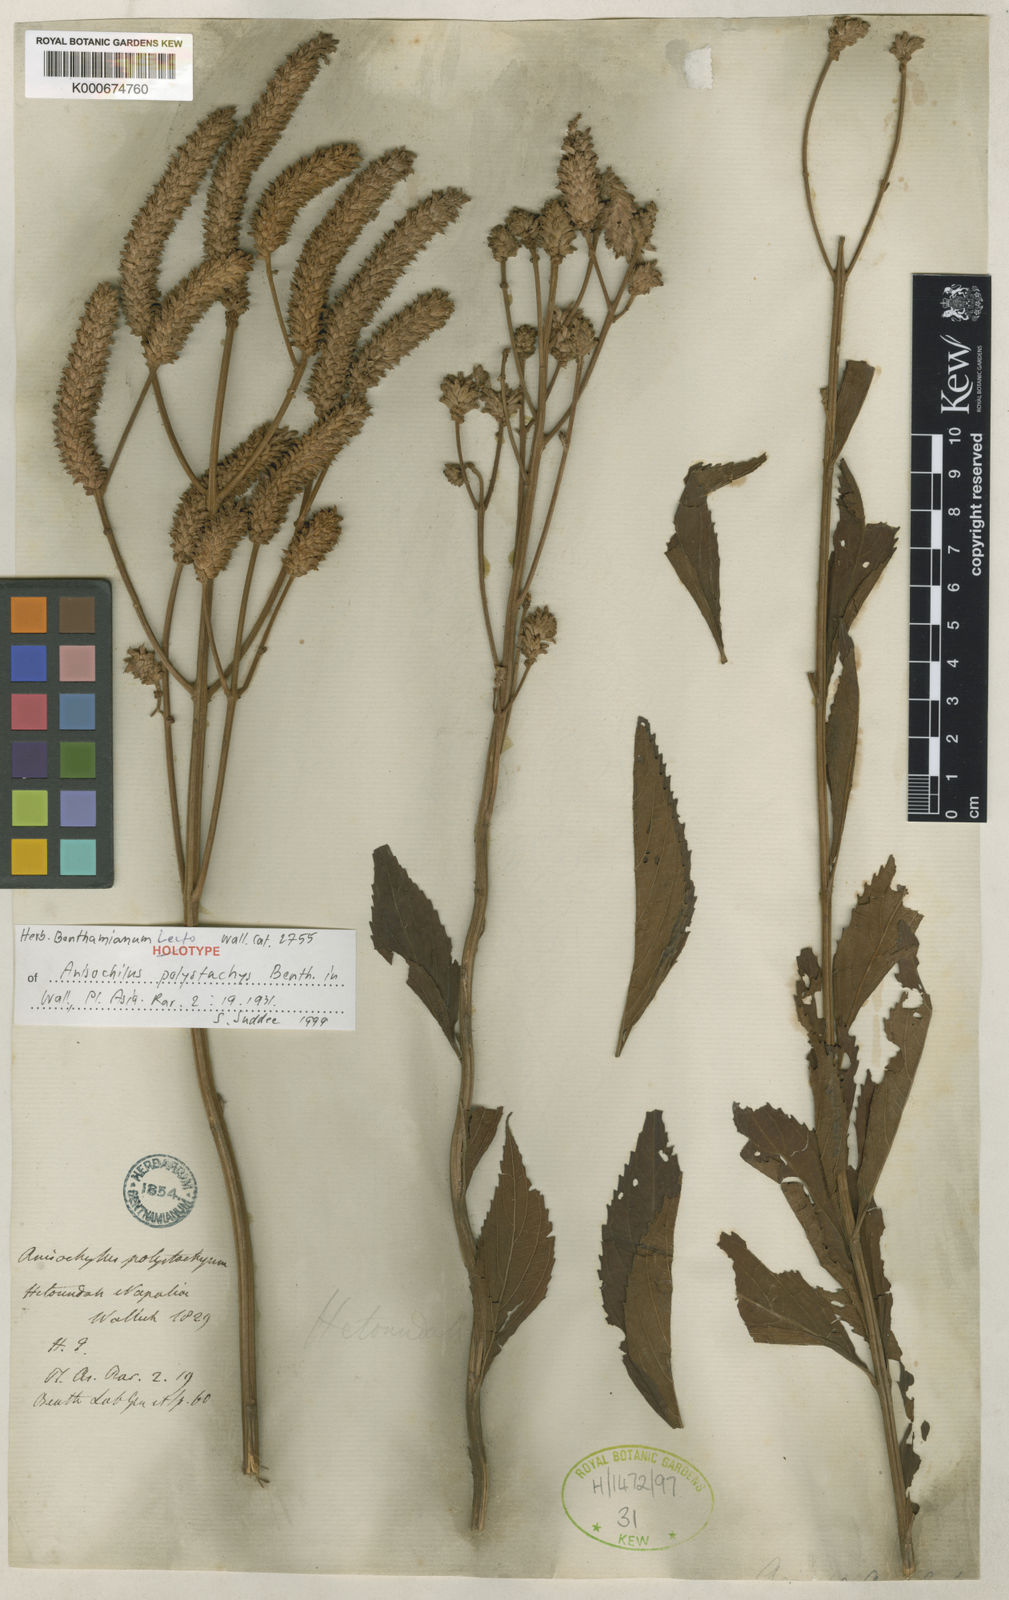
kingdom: Plantae
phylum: Tracheophyta
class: Magnoliopsida
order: Lamiales
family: Lamiaceae
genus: Coleus
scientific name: Coleus polystachyus
